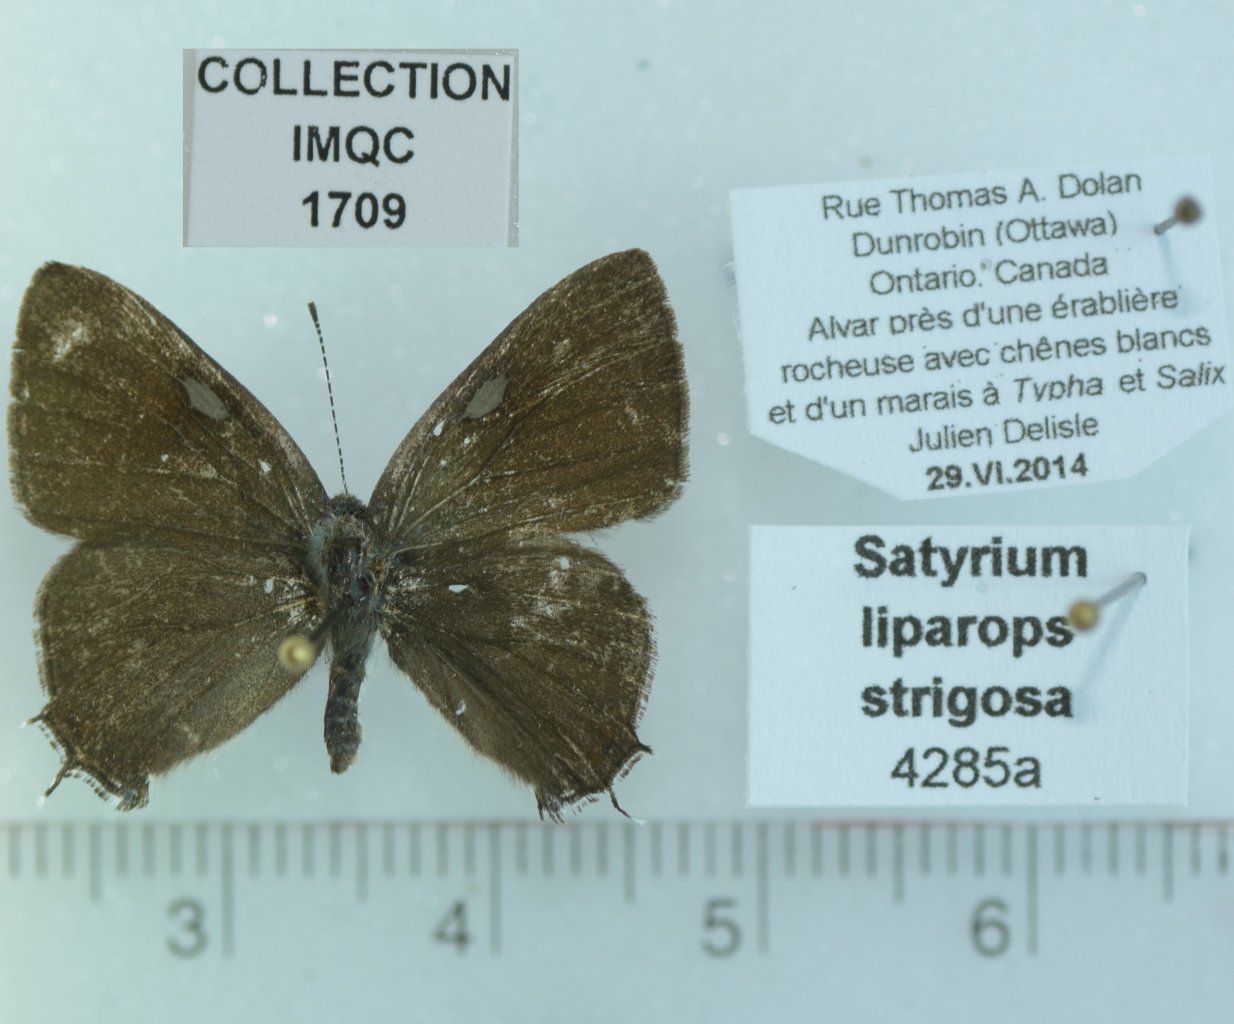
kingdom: Animalia
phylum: Arthropoda
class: Insecta
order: Lepidoptera
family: Lycaenidae
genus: Satyrium
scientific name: Satyrium liparops
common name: Striped Hairstreak
